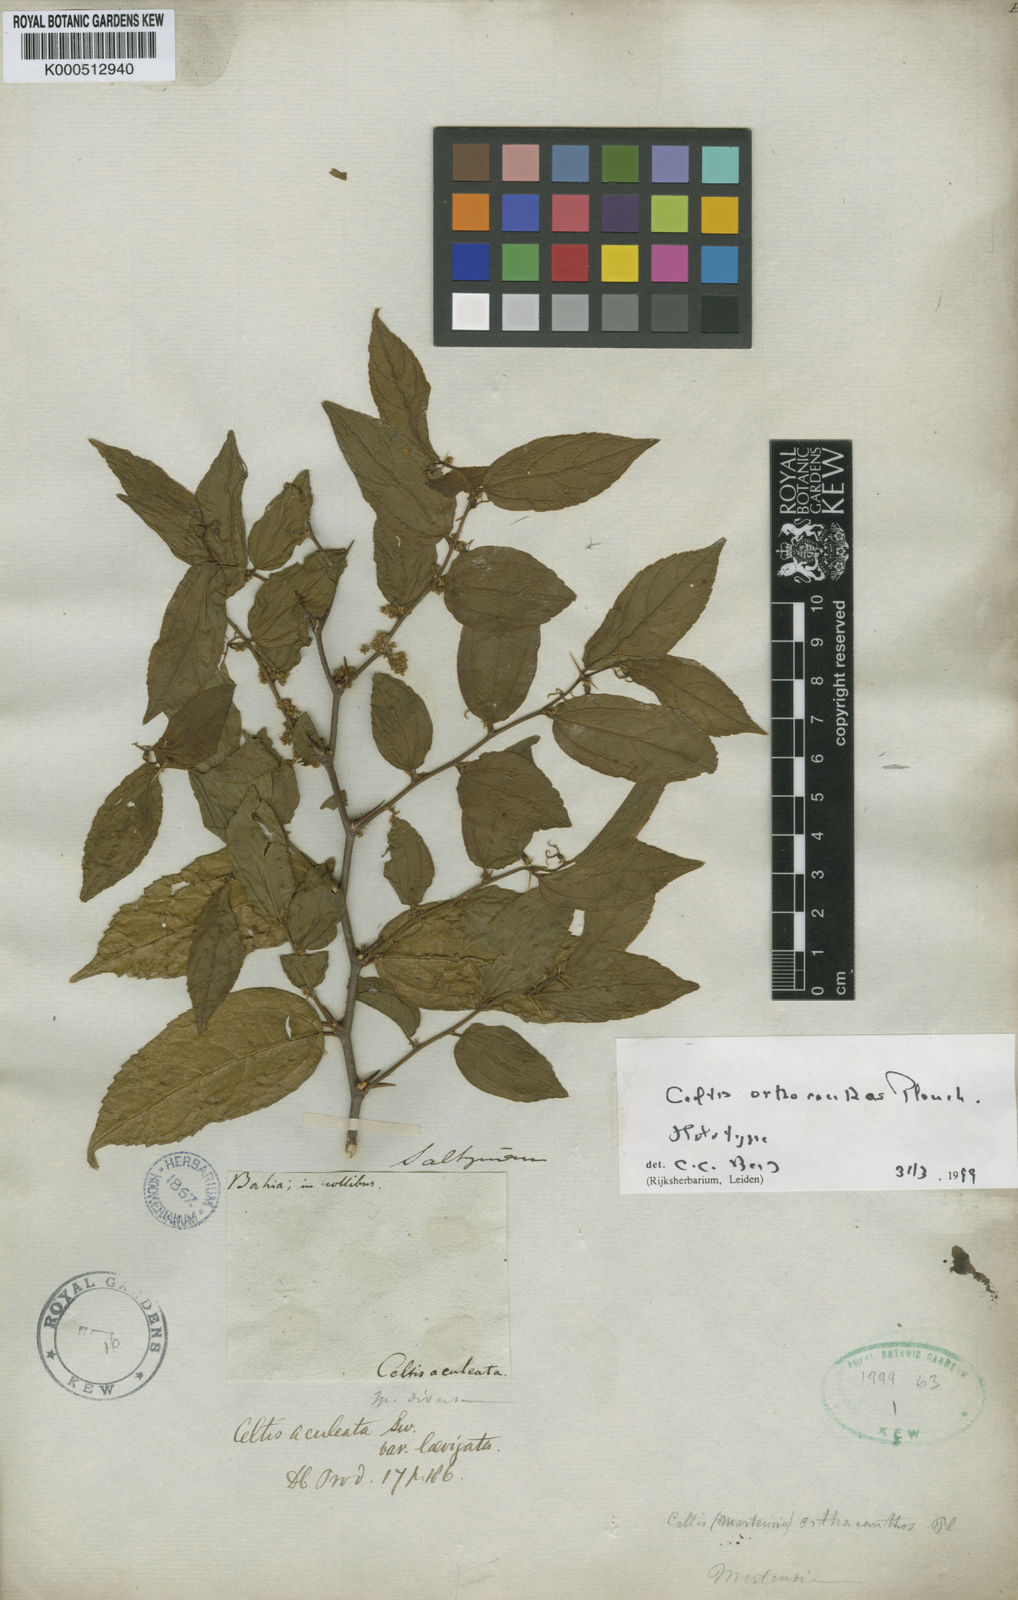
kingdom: Plantae
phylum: Tracheophyta
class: Magnoliopsida
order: Rosales
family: Cannabaceae
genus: Celtis
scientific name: Celtis iguanaea
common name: Iguana hackberry
